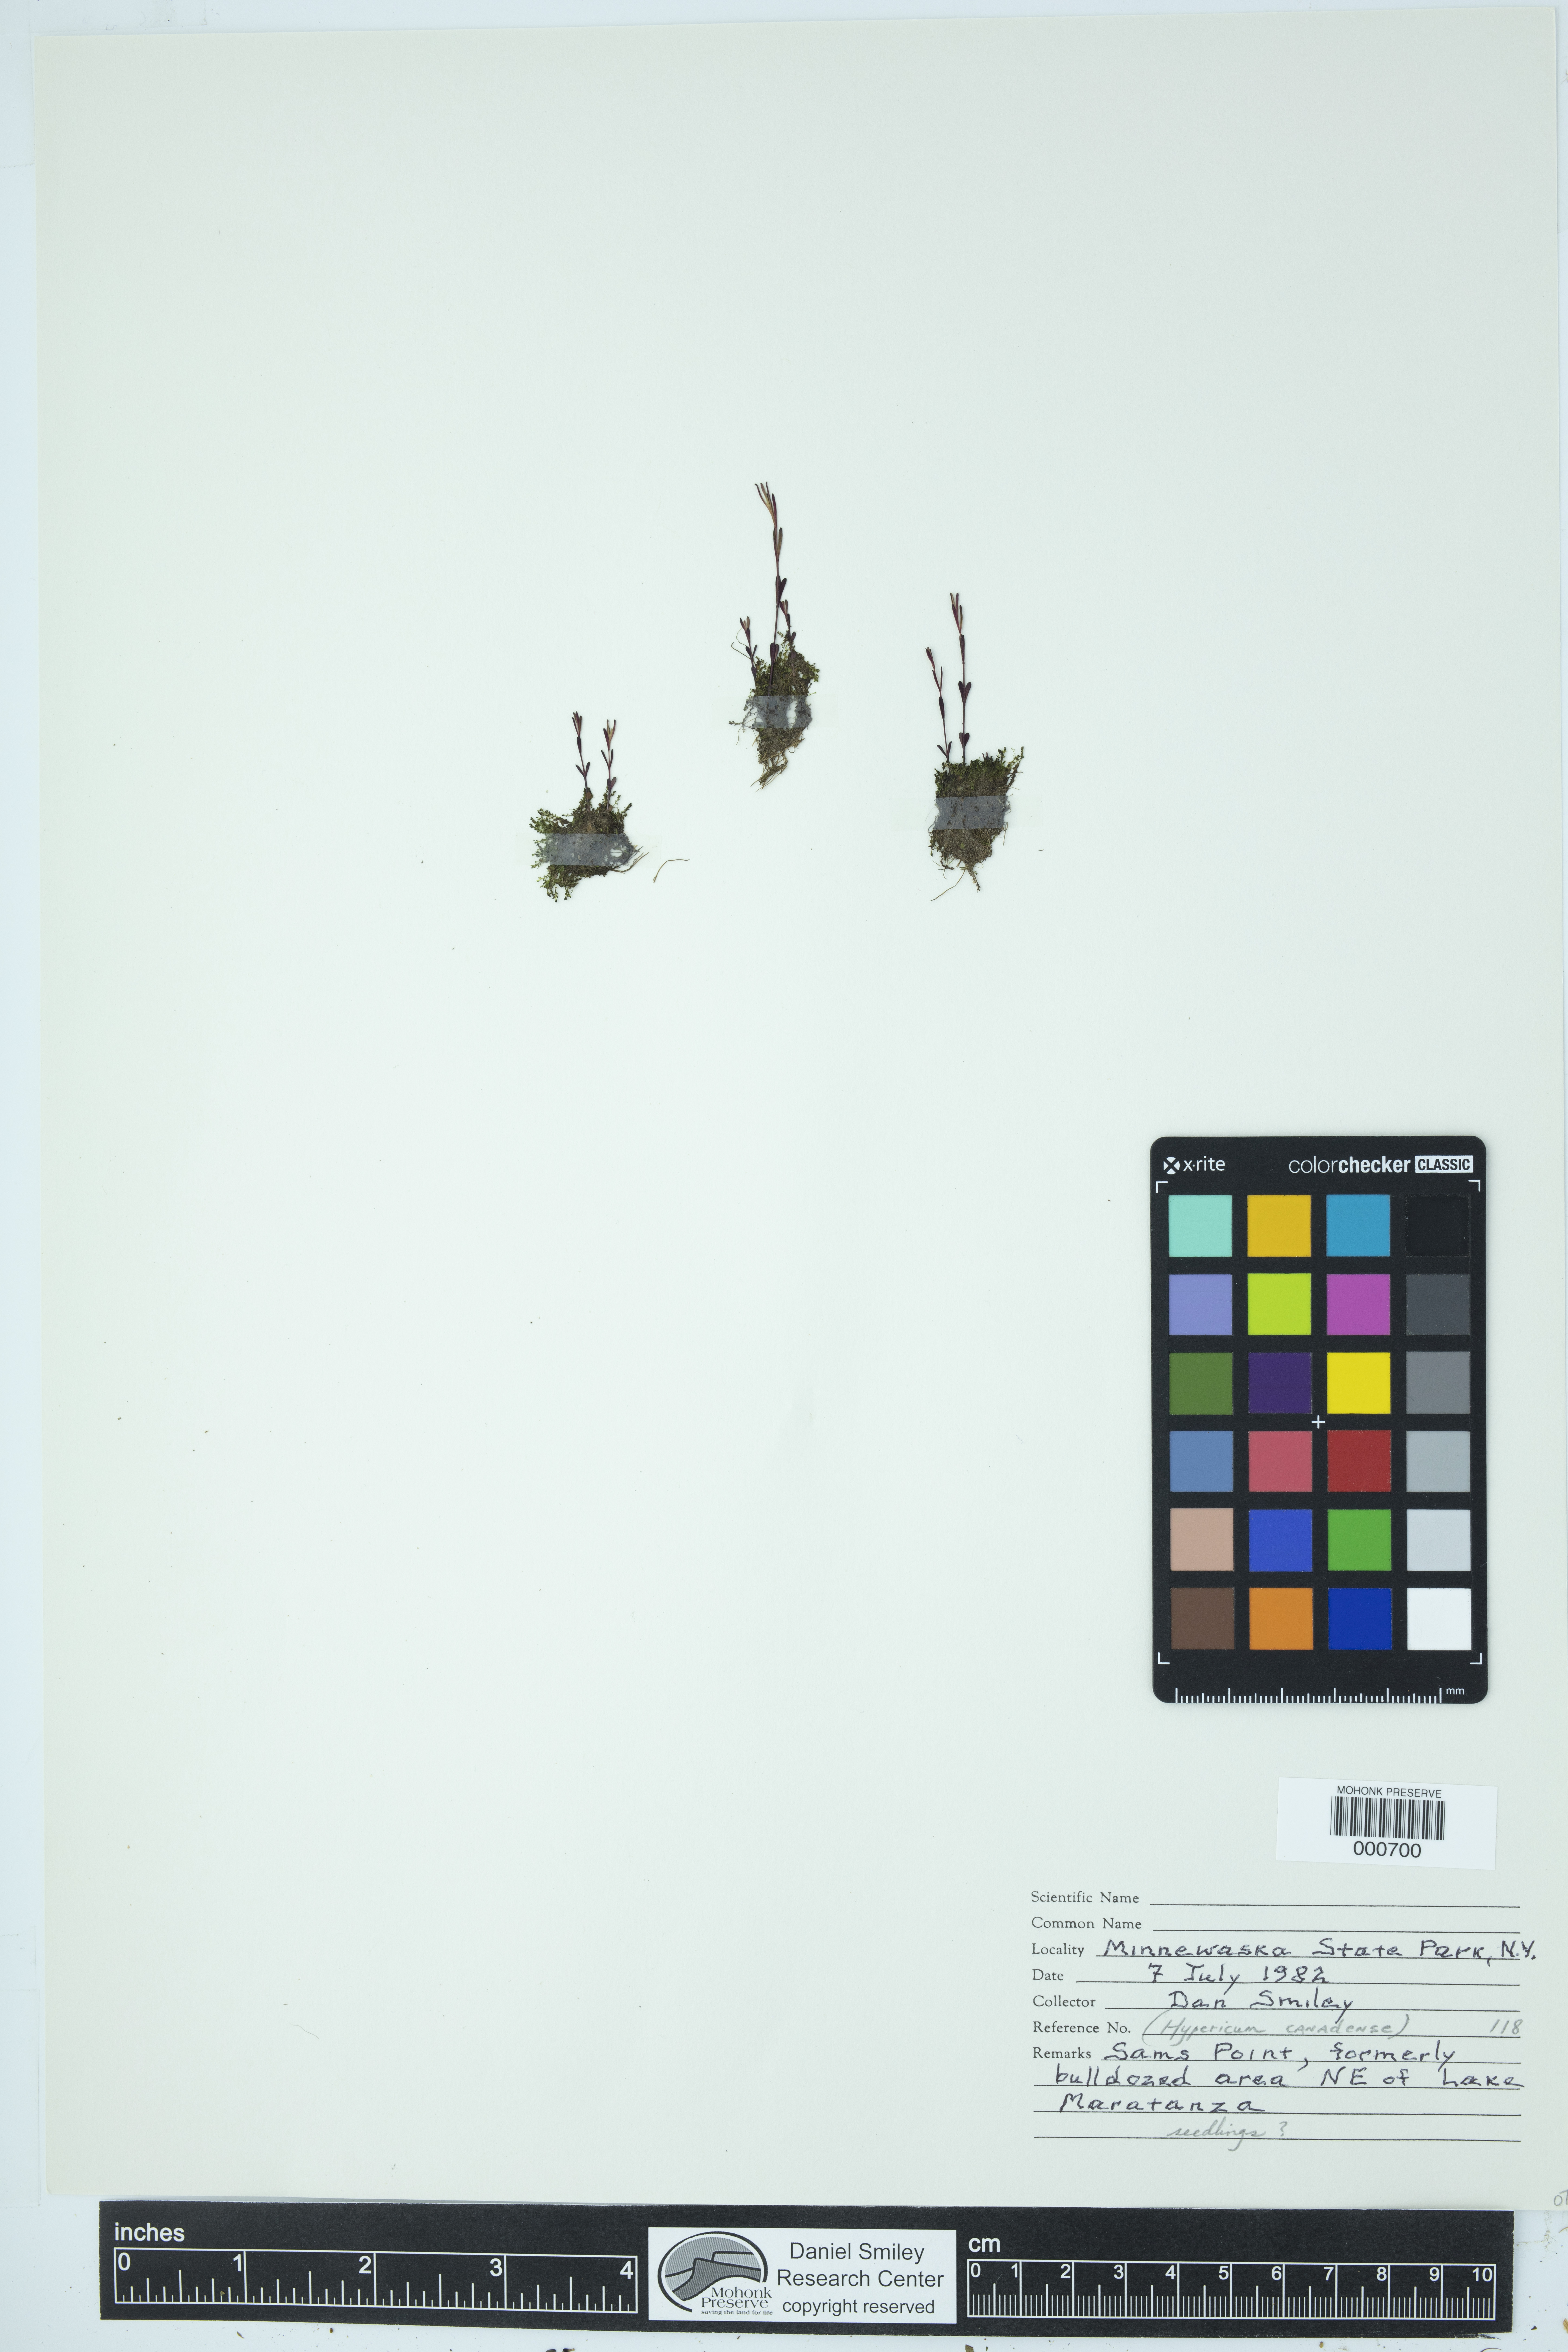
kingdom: Plantae
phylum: Tracheophyta
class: Magnoliopsida
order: Malpighiales
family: Hypericaceae
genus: Hypericum
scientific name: Hypericum canadense
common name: Irish st. john's-wort
